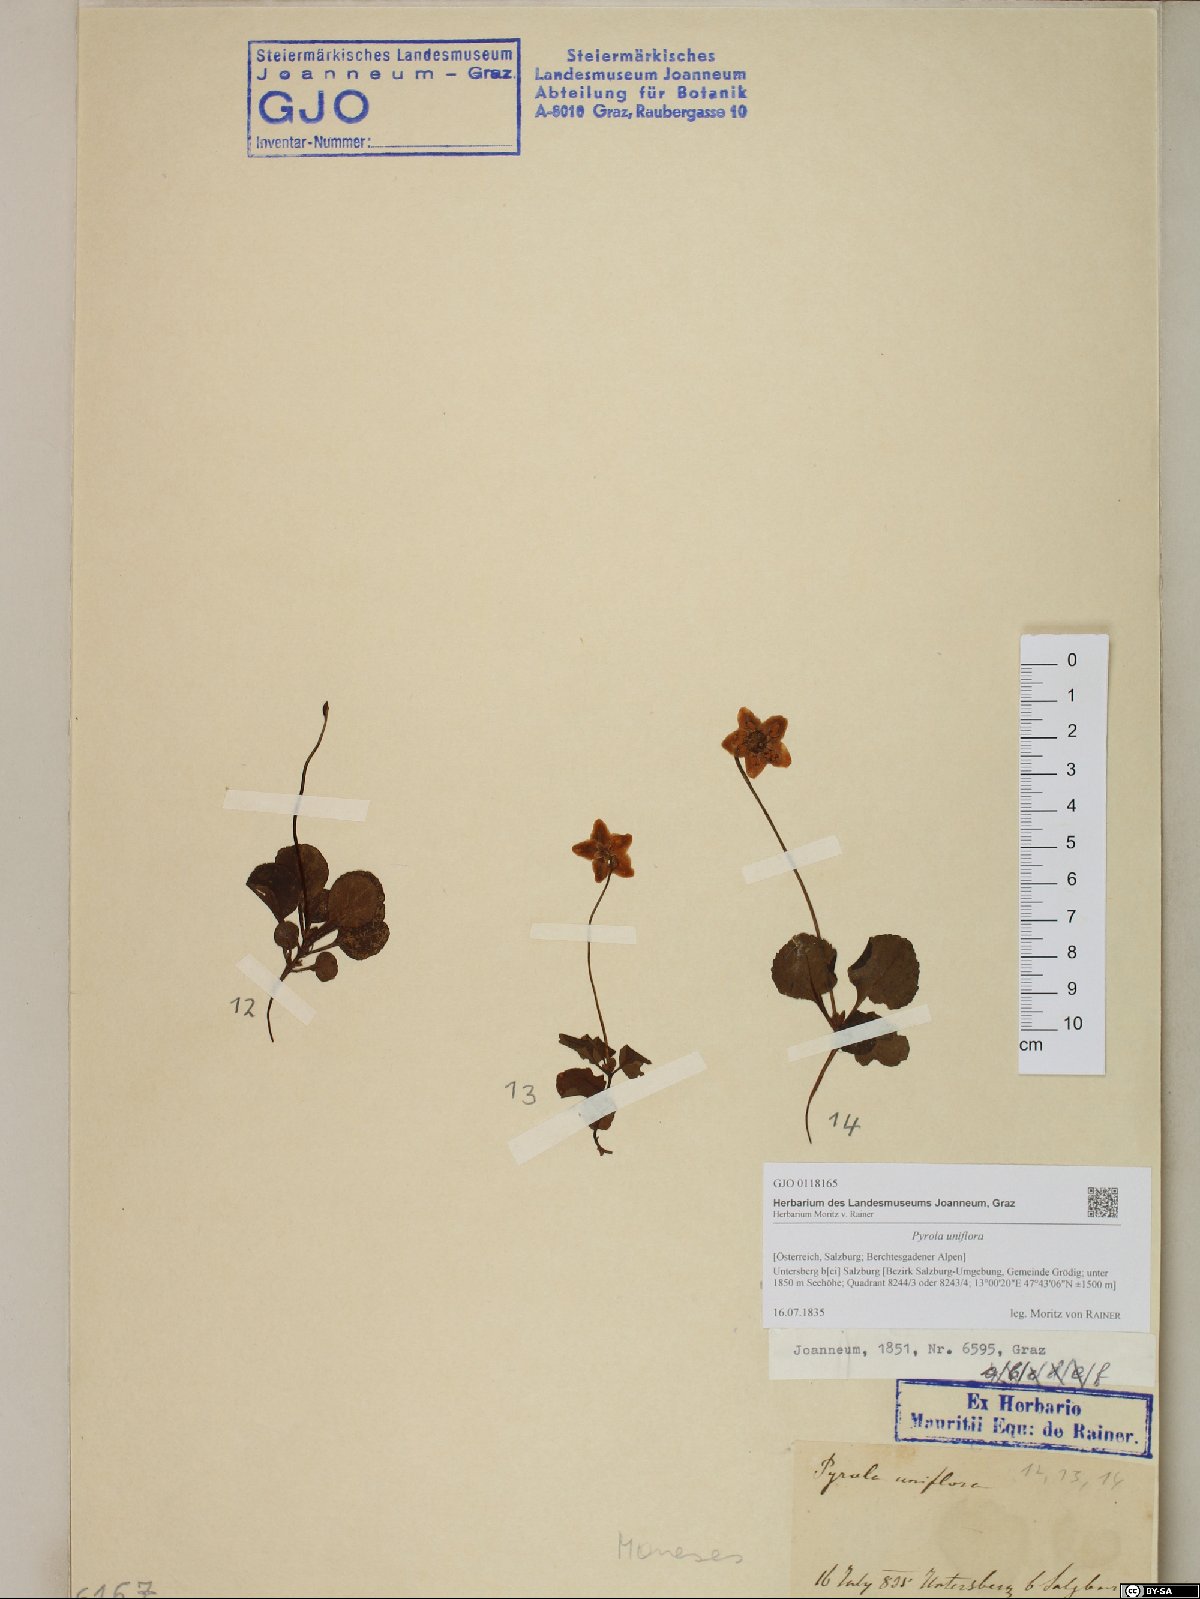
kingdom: Plantae
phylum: Tracheophyta
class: Magnoliopsida
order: Ericales
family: Ericaceae
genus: Moneses
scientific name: Moneses uniflora
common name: One-flowered wintergreen
